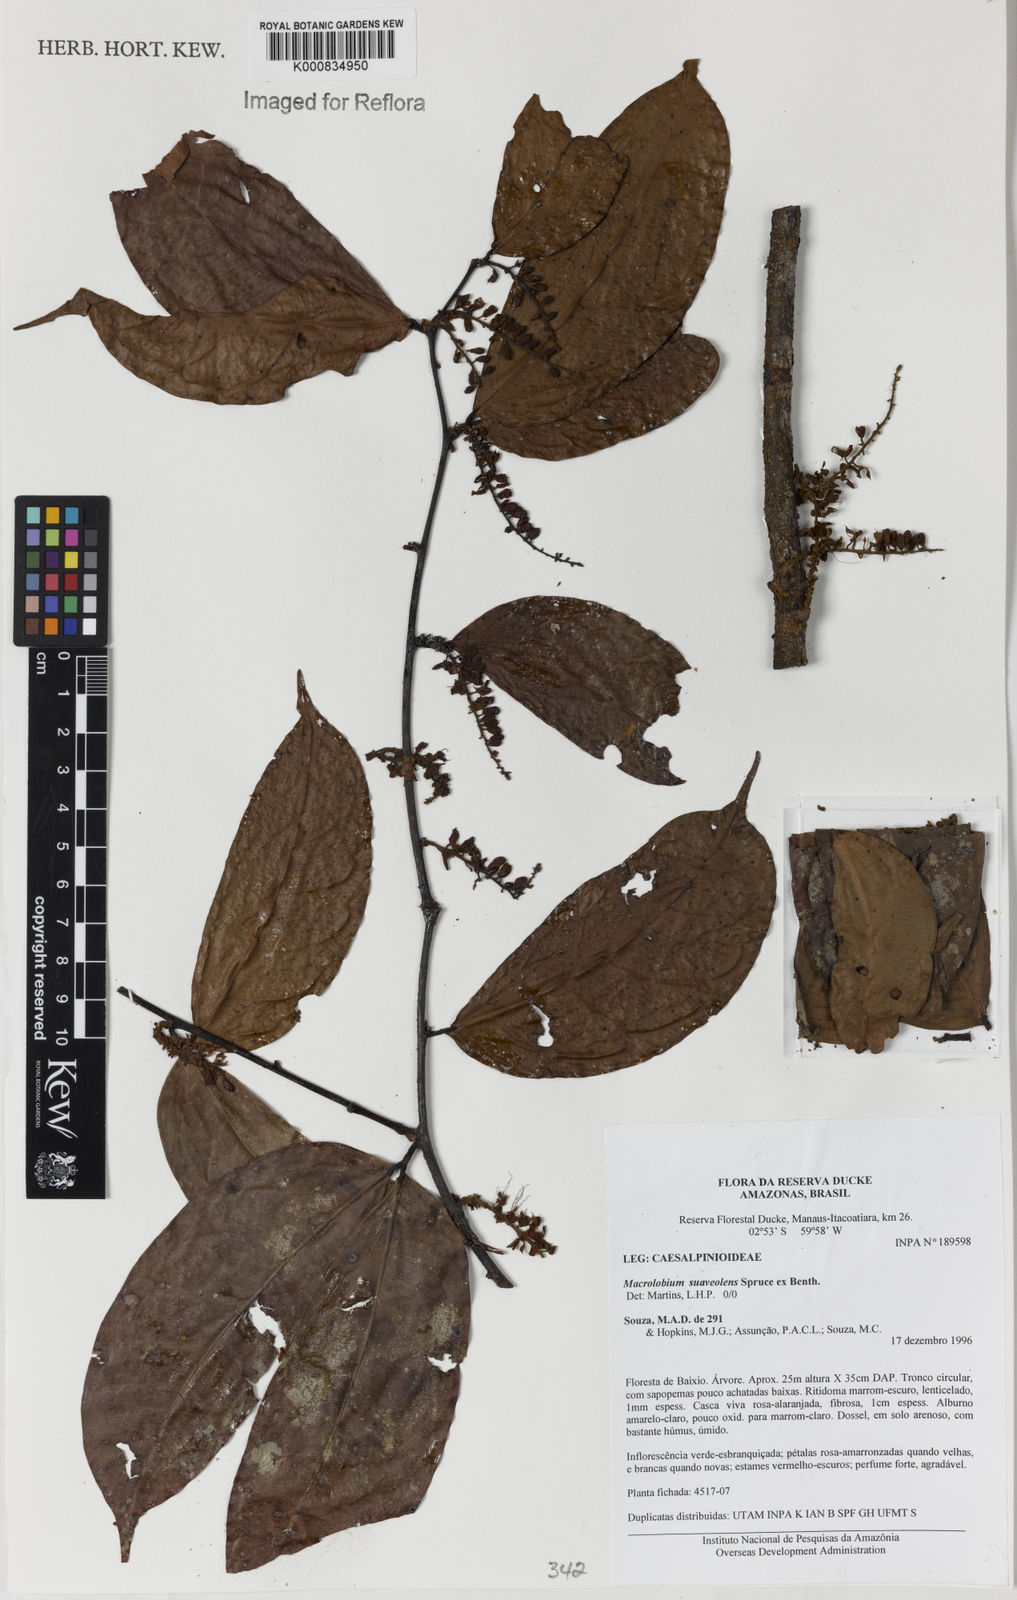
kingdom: Plantae
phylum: Tracheophyta
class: Magnoliopsida
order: Fabales
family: Fabaceae
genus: Macrolobium
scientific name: Macrolobium suaveolens
